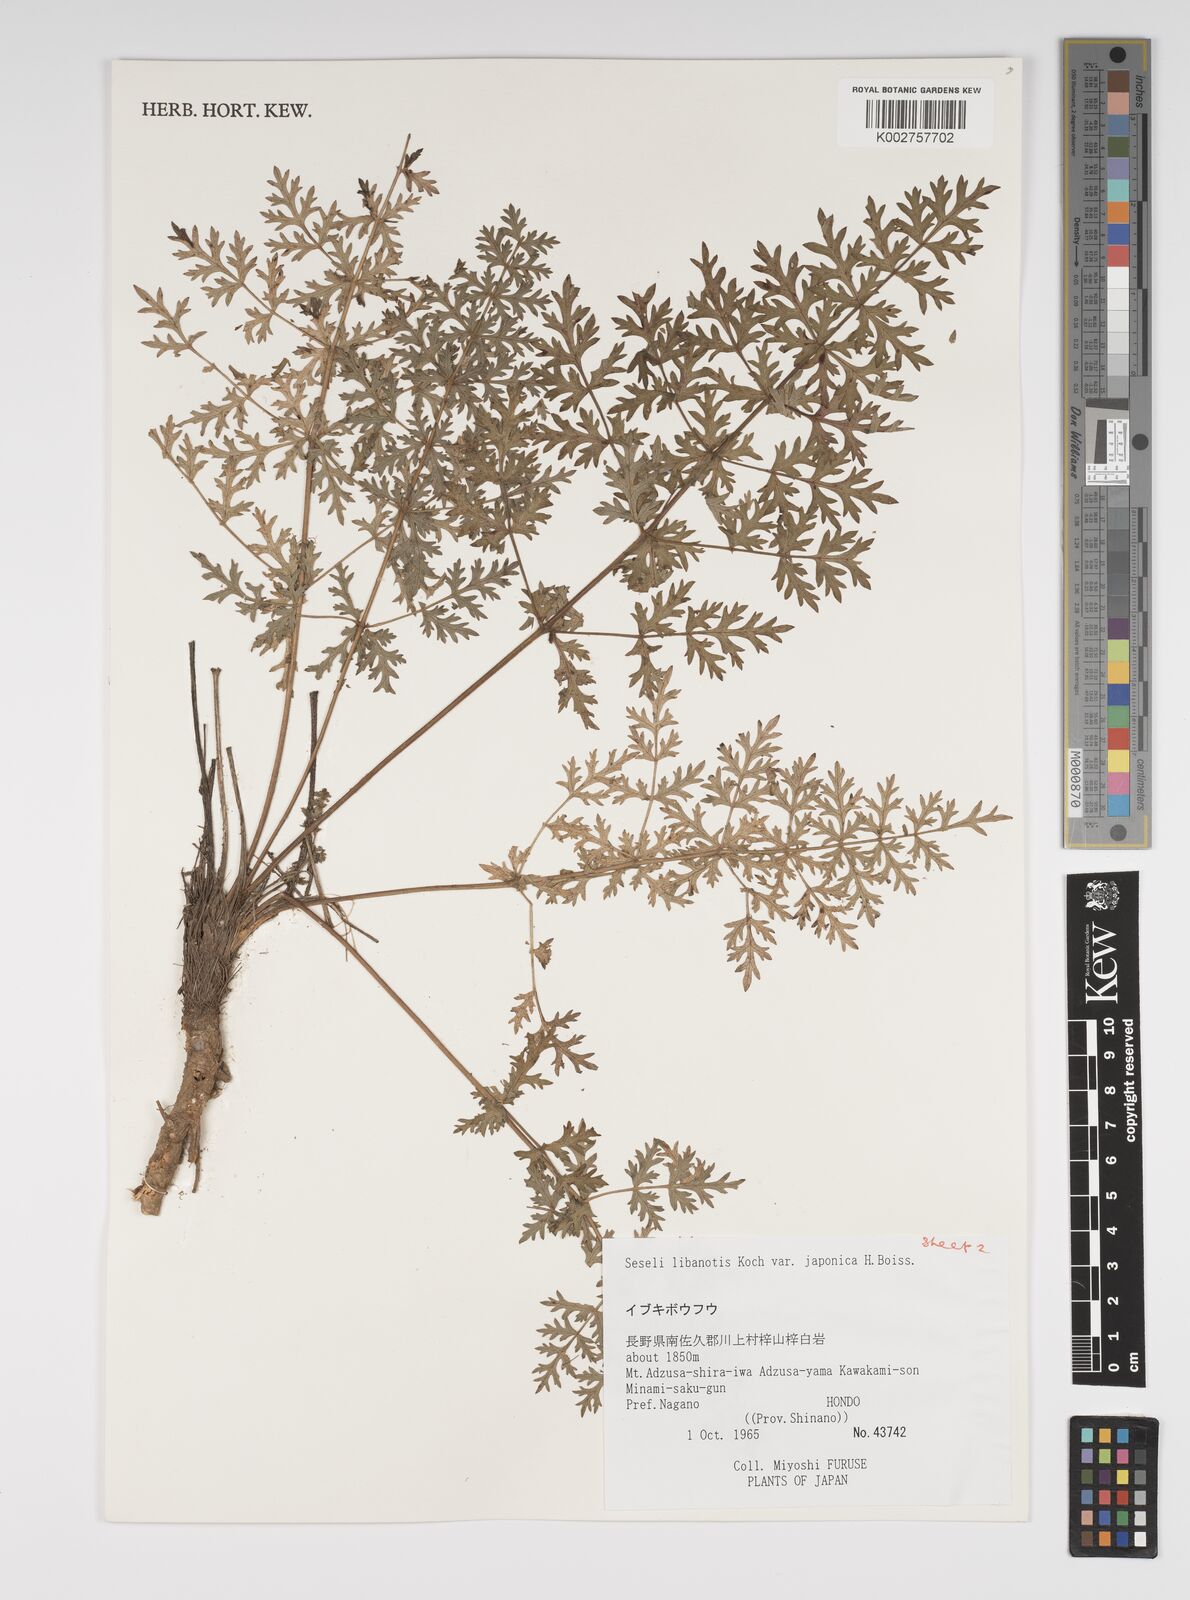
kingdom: Plantae
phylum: Tracheophyta
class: Magnoliopsida
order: Apiales
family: Apiaceae
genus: Seseli
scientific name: Seseli libanotis
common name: Mooncarrot
